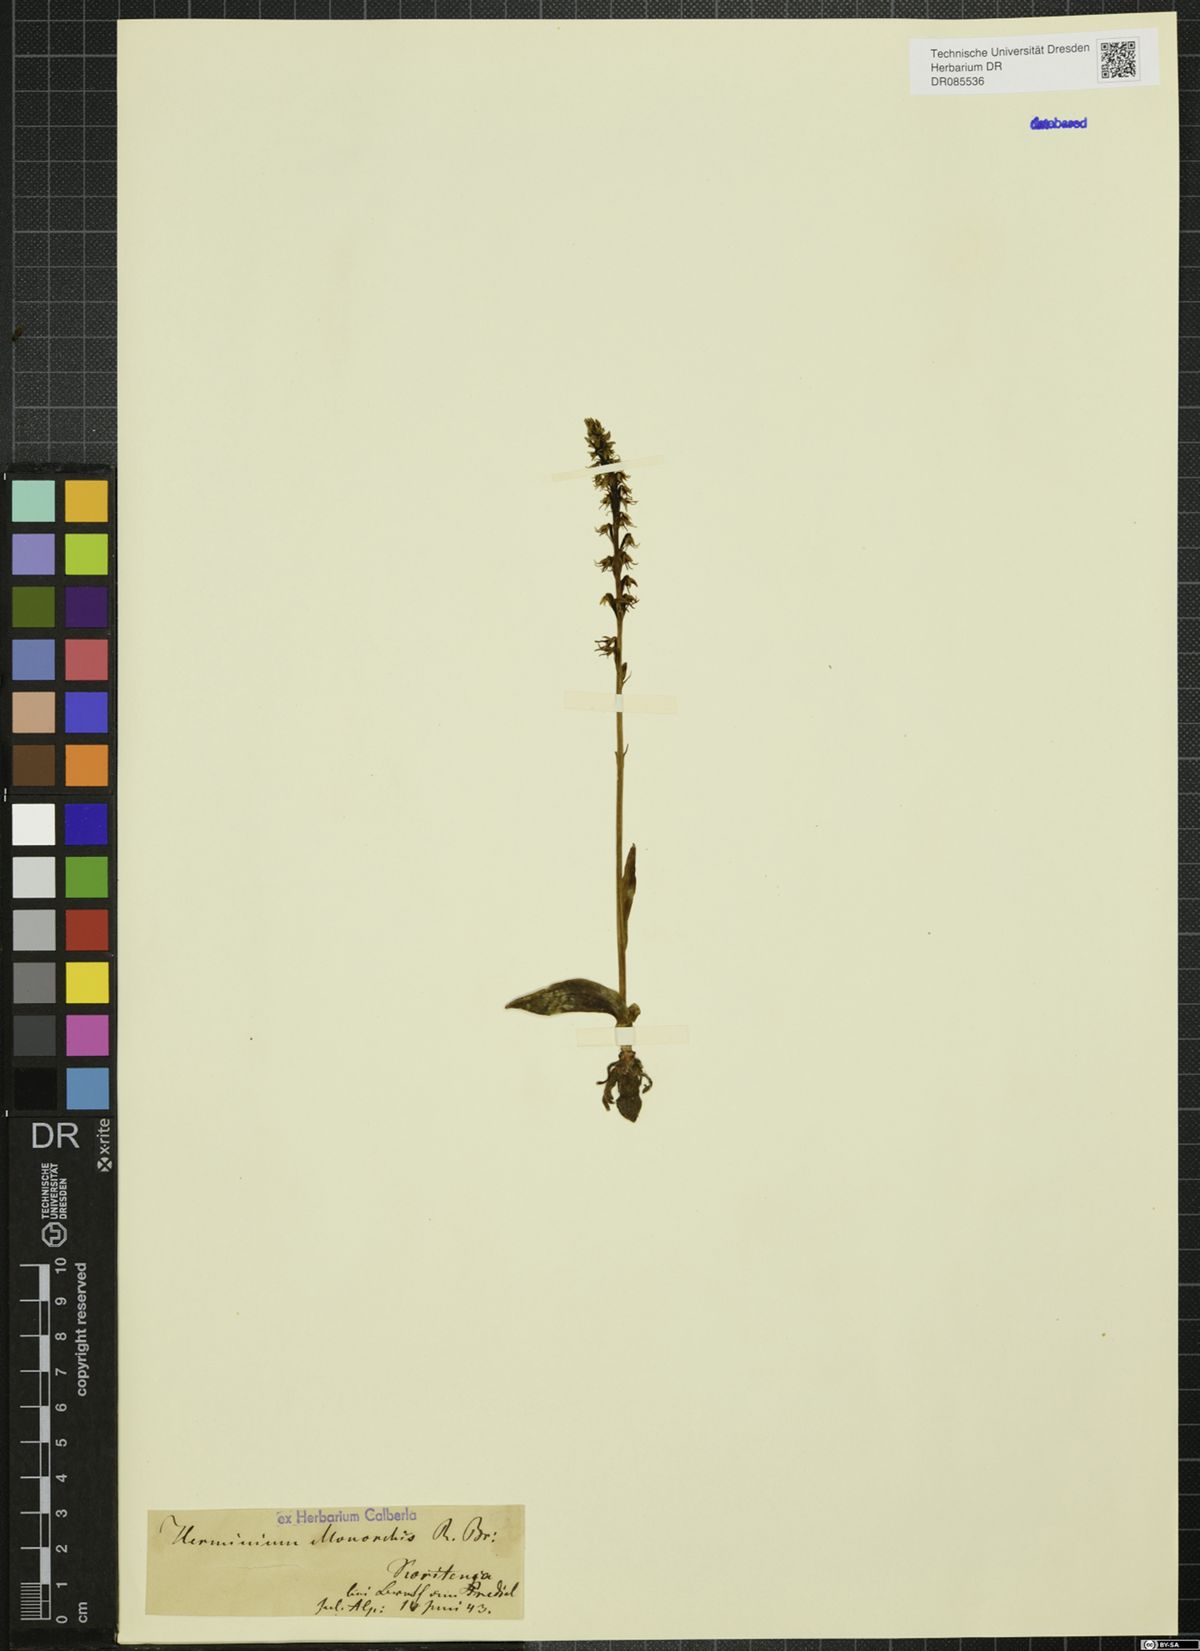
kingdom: Plantae
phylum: Tracheophyta
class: Liliopsida
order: Asparagales
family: Orchidaceae
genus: Herminium
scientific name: Herminium monorchis
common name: Musk orchid
